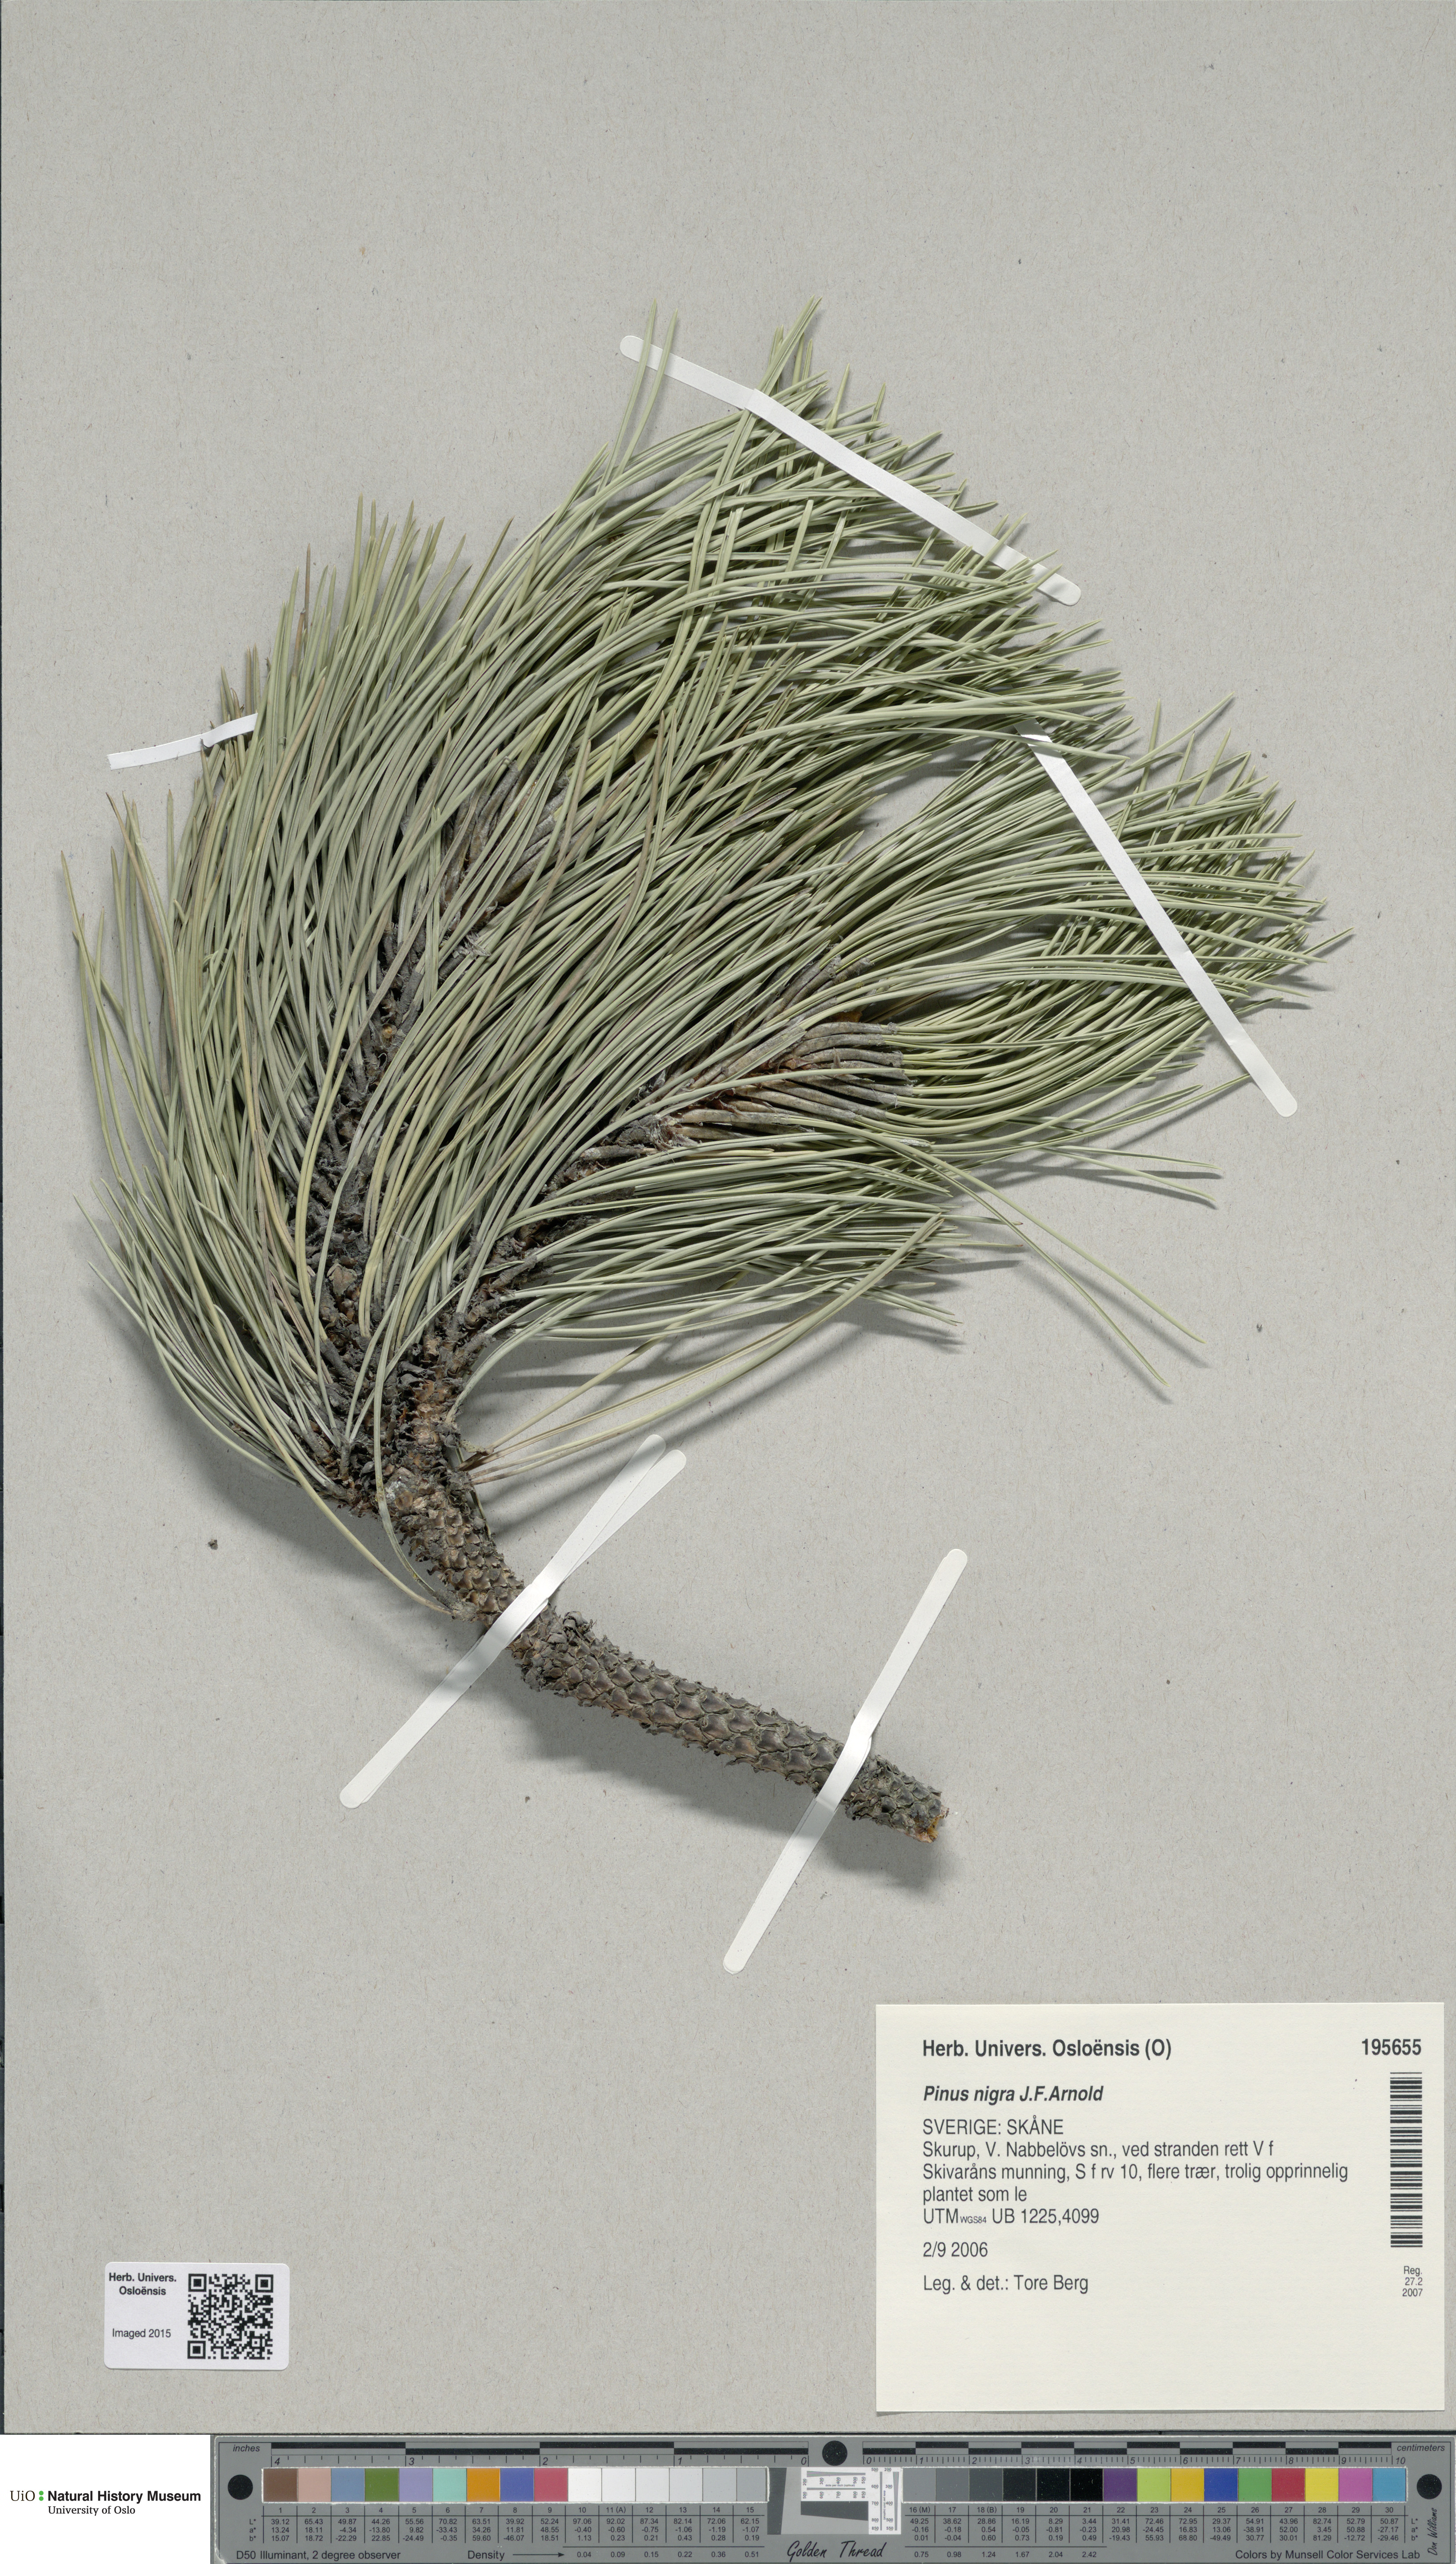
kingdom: Plantae
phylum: Tracheophyta
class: Pinopsida
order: Pinales
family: Pinaceae
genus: Pinus
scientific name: Pinus nigra
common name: Austrian pine
